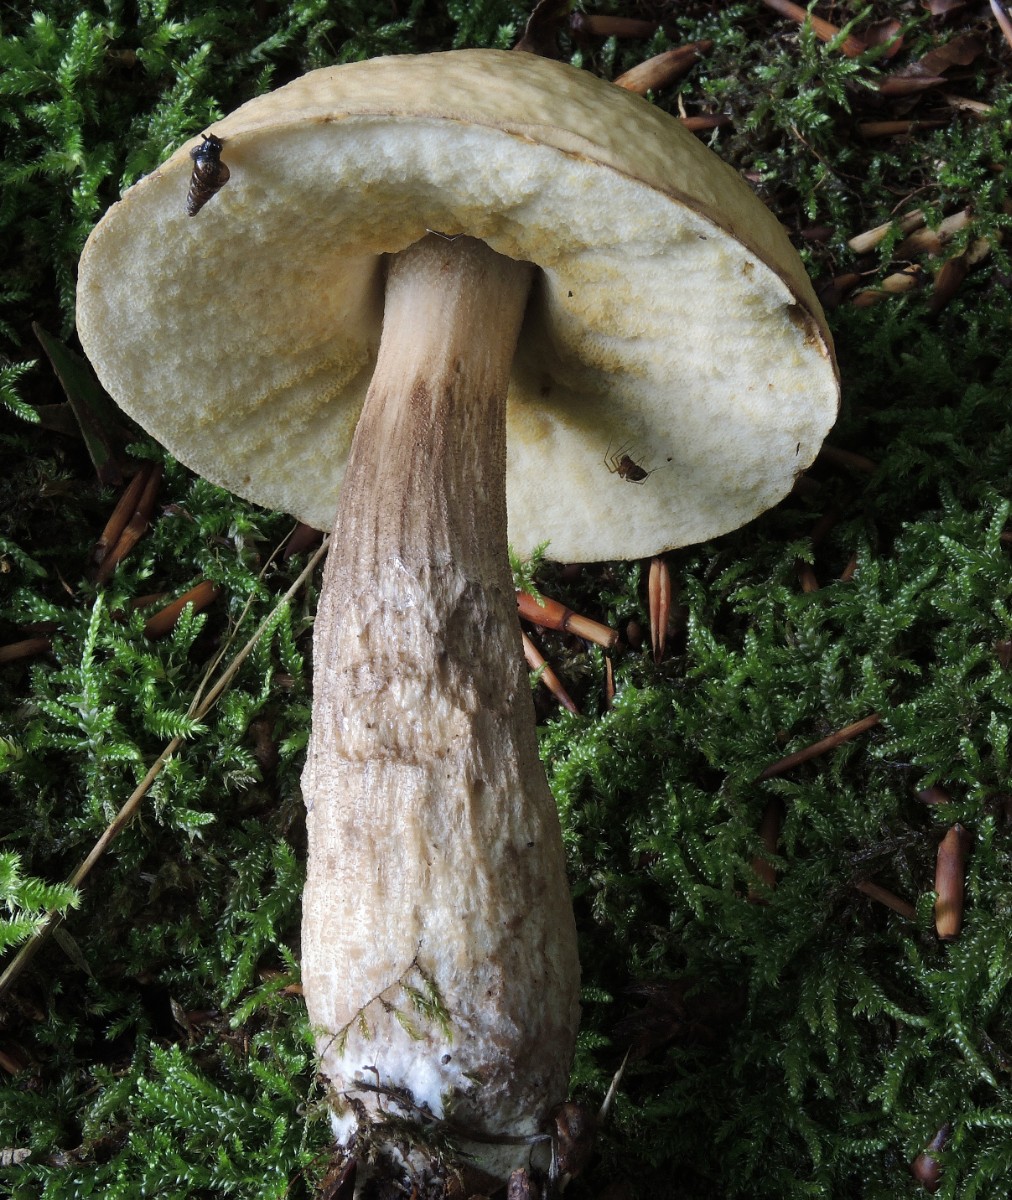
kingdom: Fungi
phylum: Basidiomycota
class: Agaricomycetes
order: Boletales
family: Boletaceae
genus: Leccinellum
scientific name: Leccinellum pseudoscabrum
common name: avnbøg-skælrørhat
